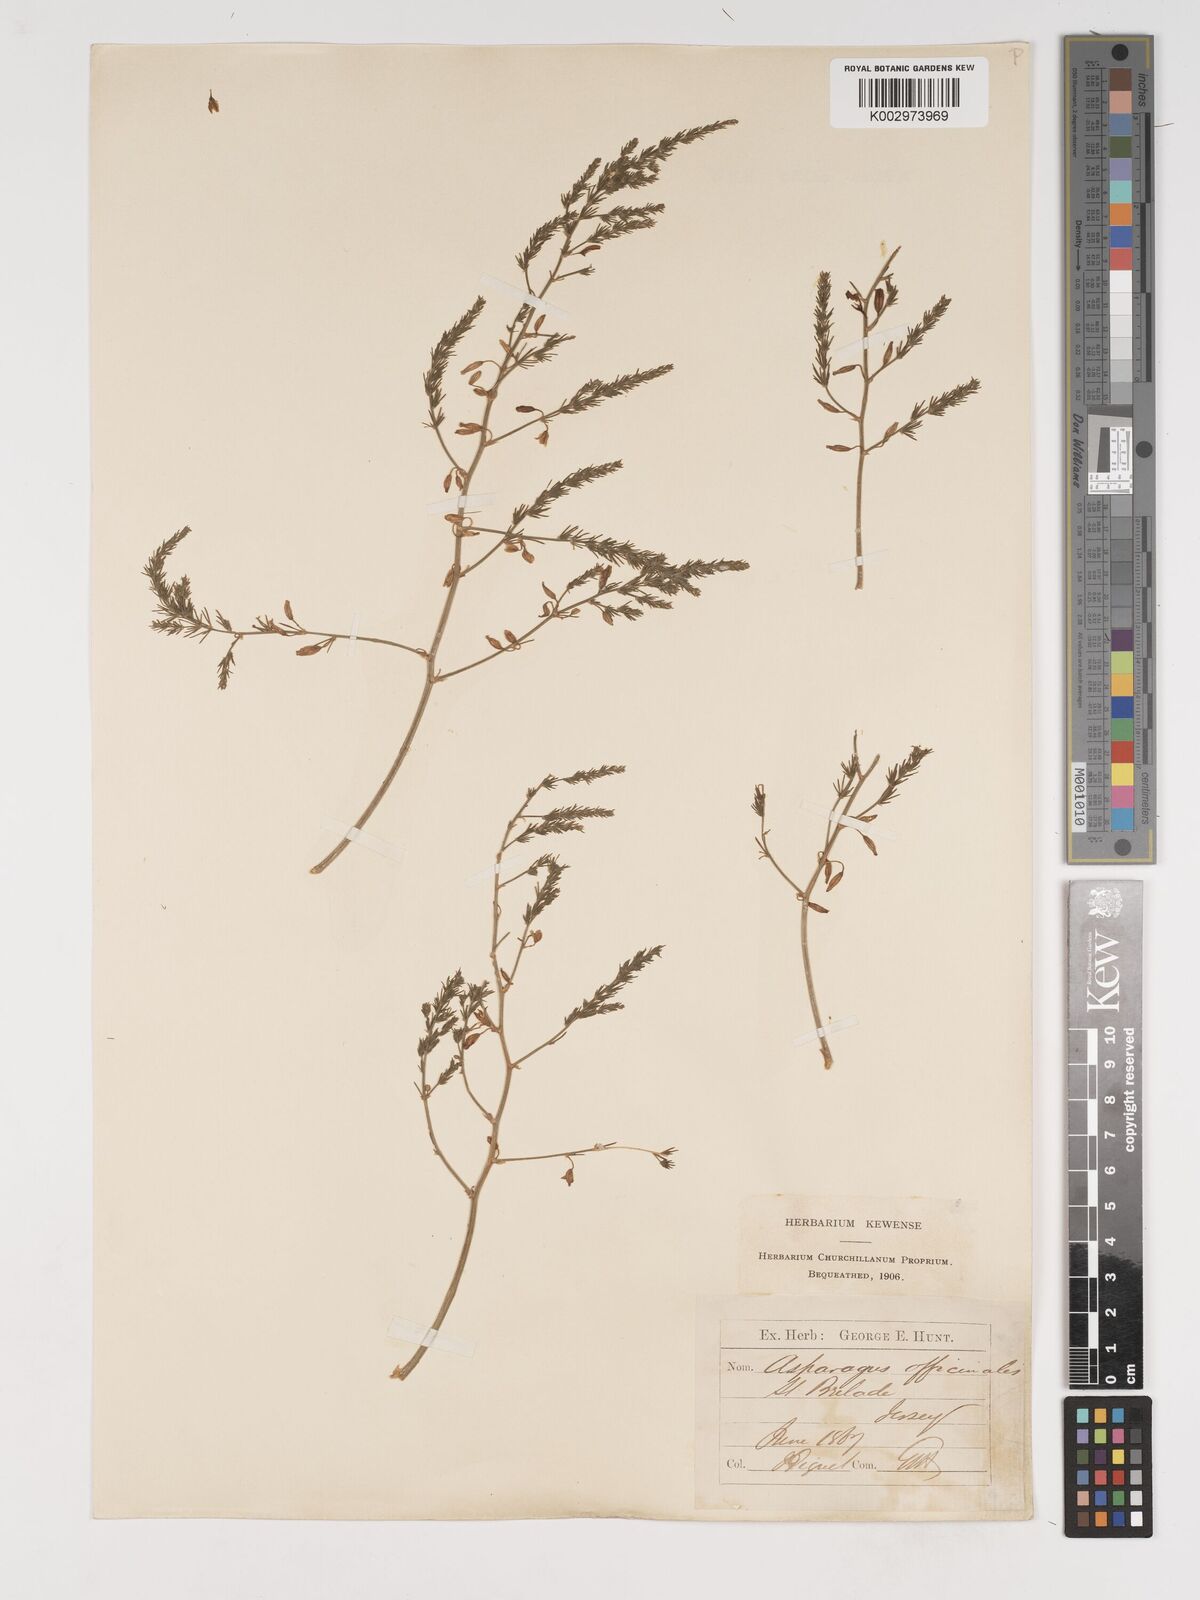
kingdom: Plantae
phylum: Tracheophyta
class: Liliopsida
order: Asparagales
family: Asparagaceae
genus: Asparagus
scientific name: Asparagus maritimus
